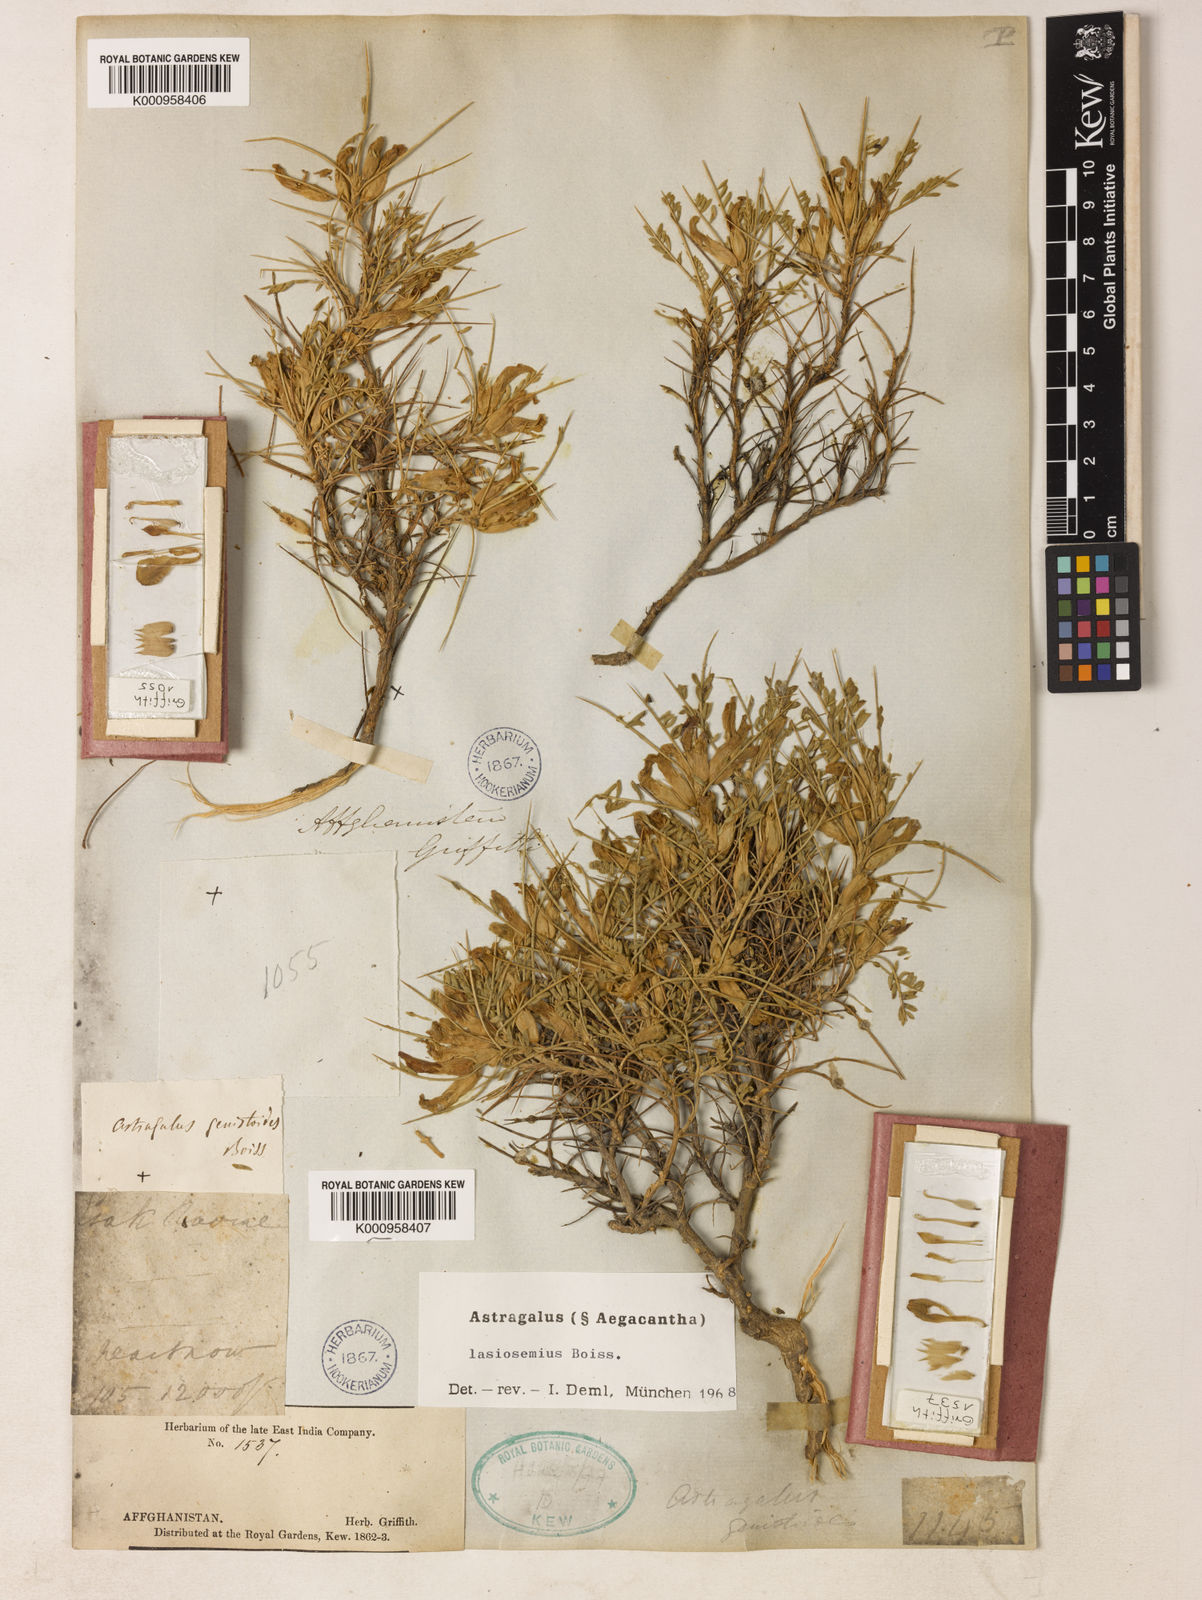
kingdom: Plantae
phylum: Tracheophyta
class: Magnoliopsida
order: Fabales
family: Fabaceae
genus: Astragalus
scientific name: Astragalus
